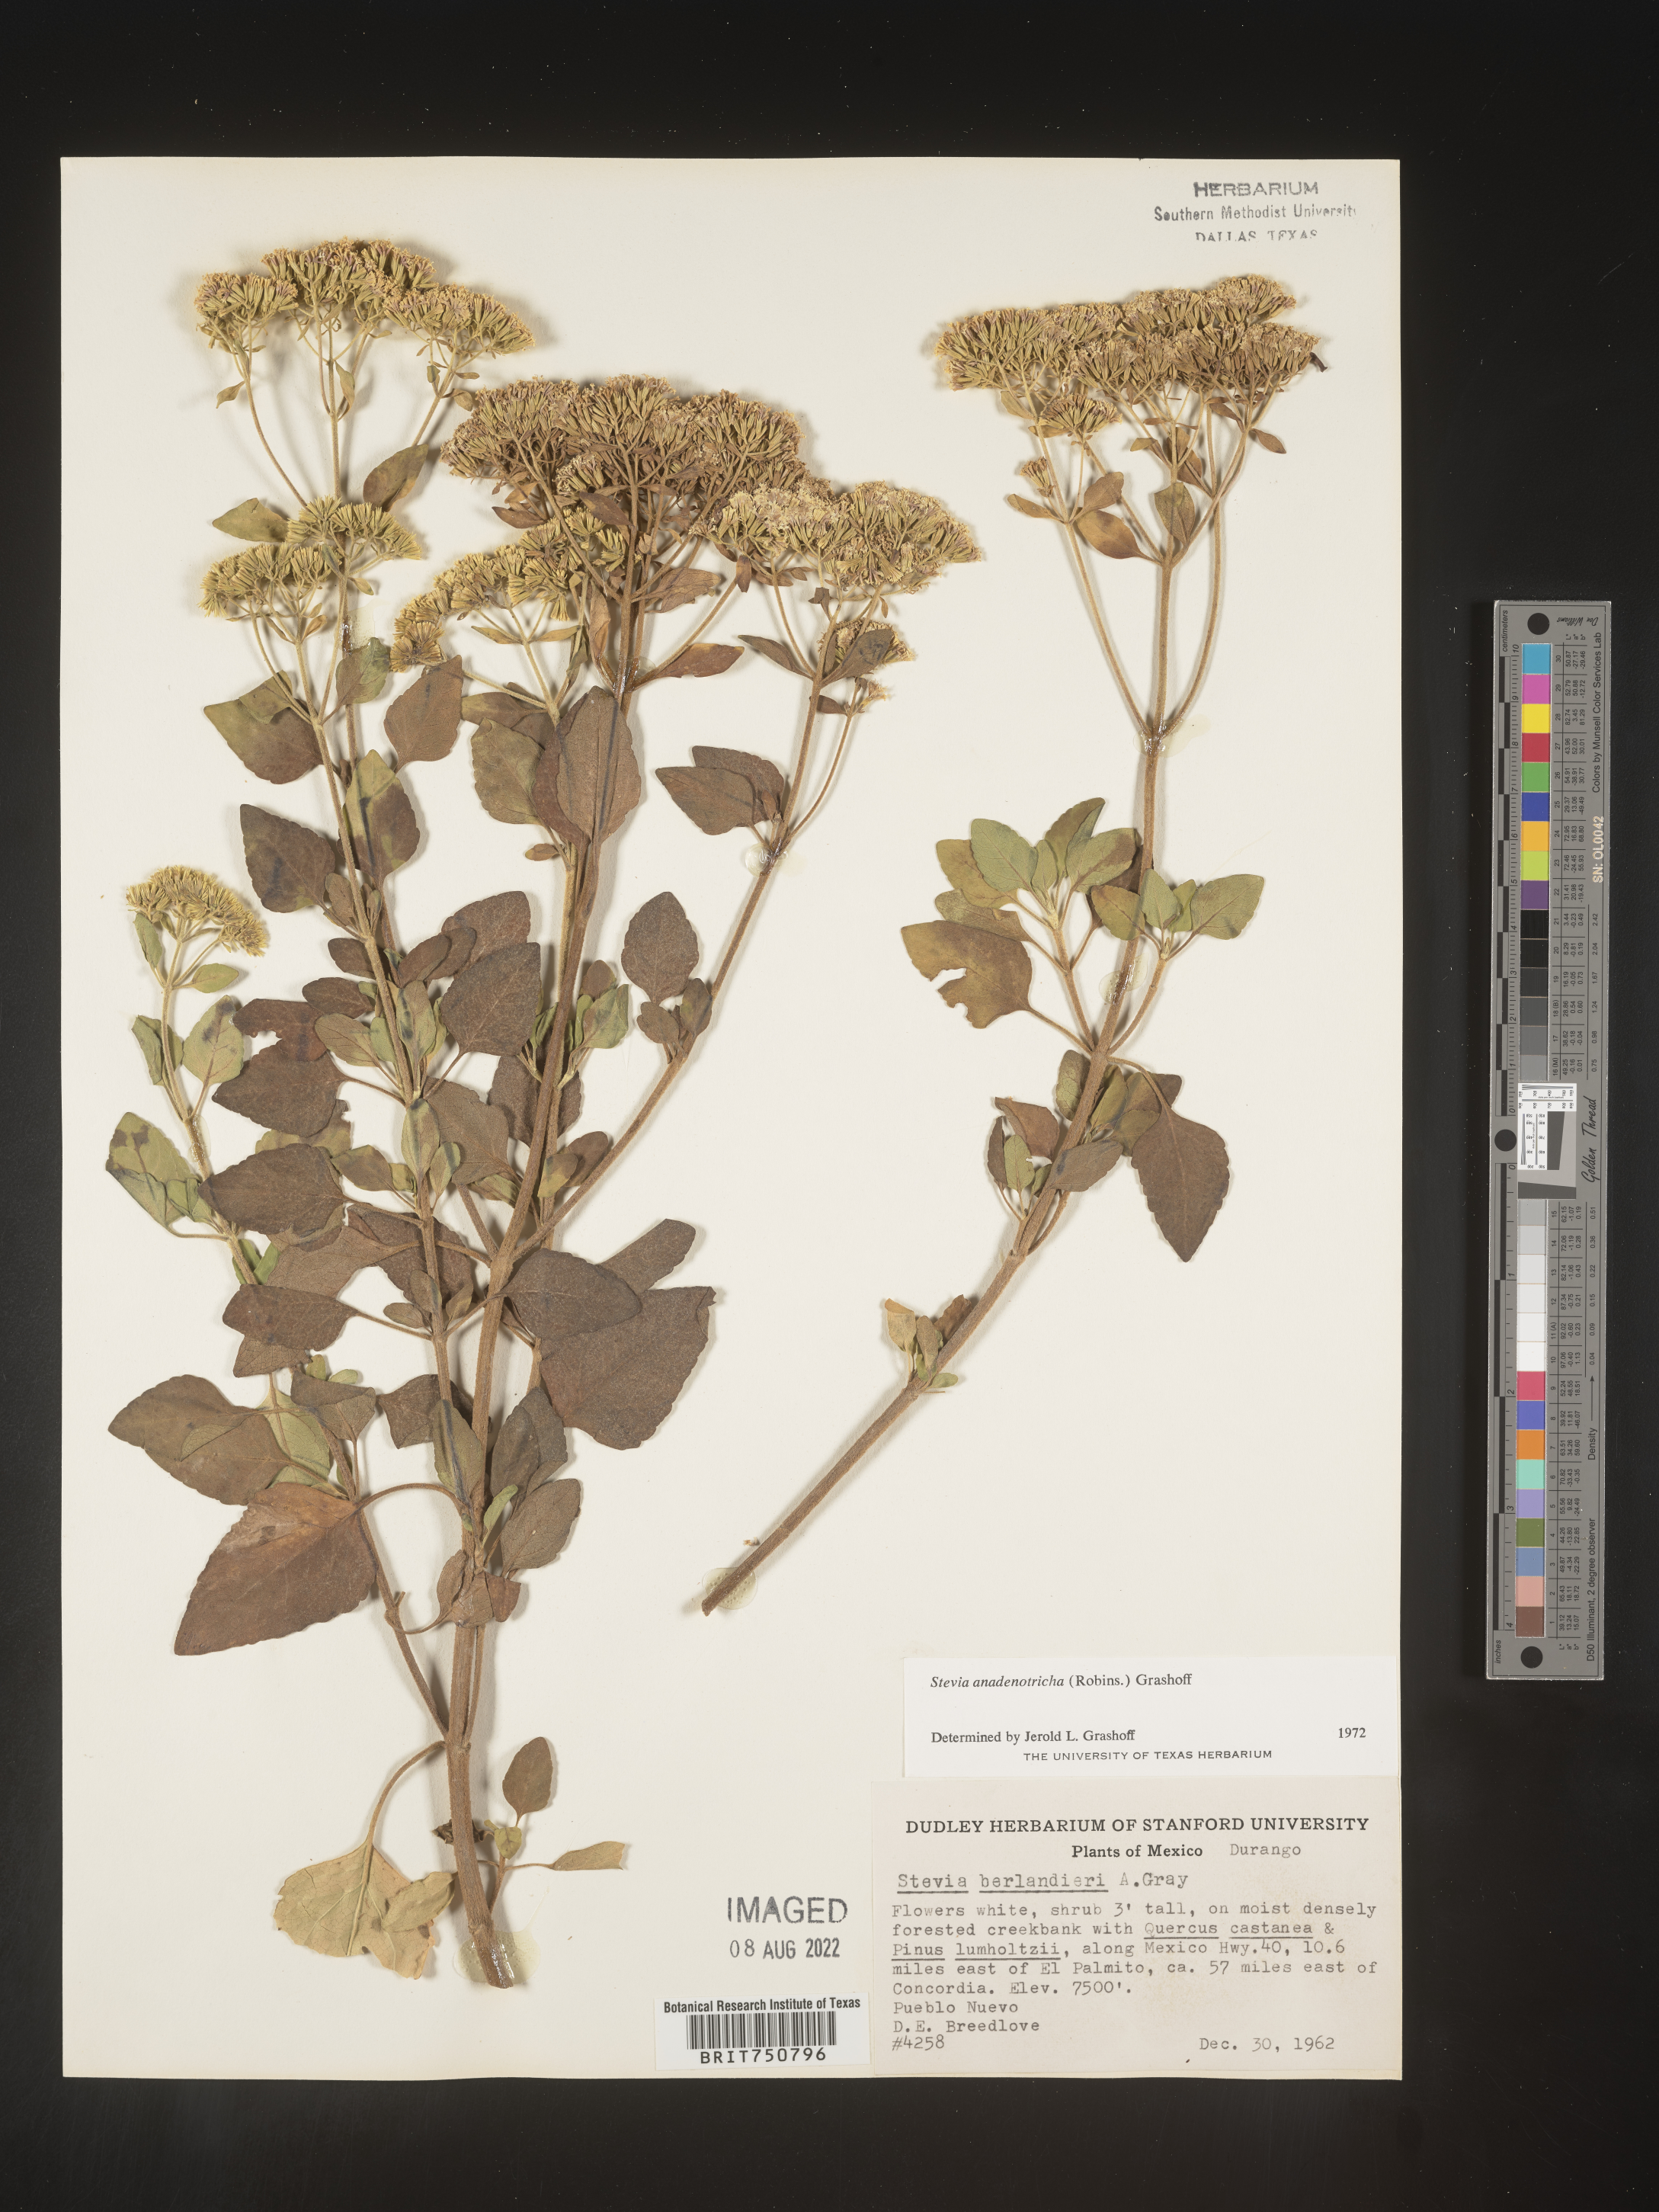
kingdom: Plantae
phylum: Tracheophyta
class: Magnoliopsida
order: Asterales
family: Asteraceae
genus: Stevia
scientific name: Stevia
